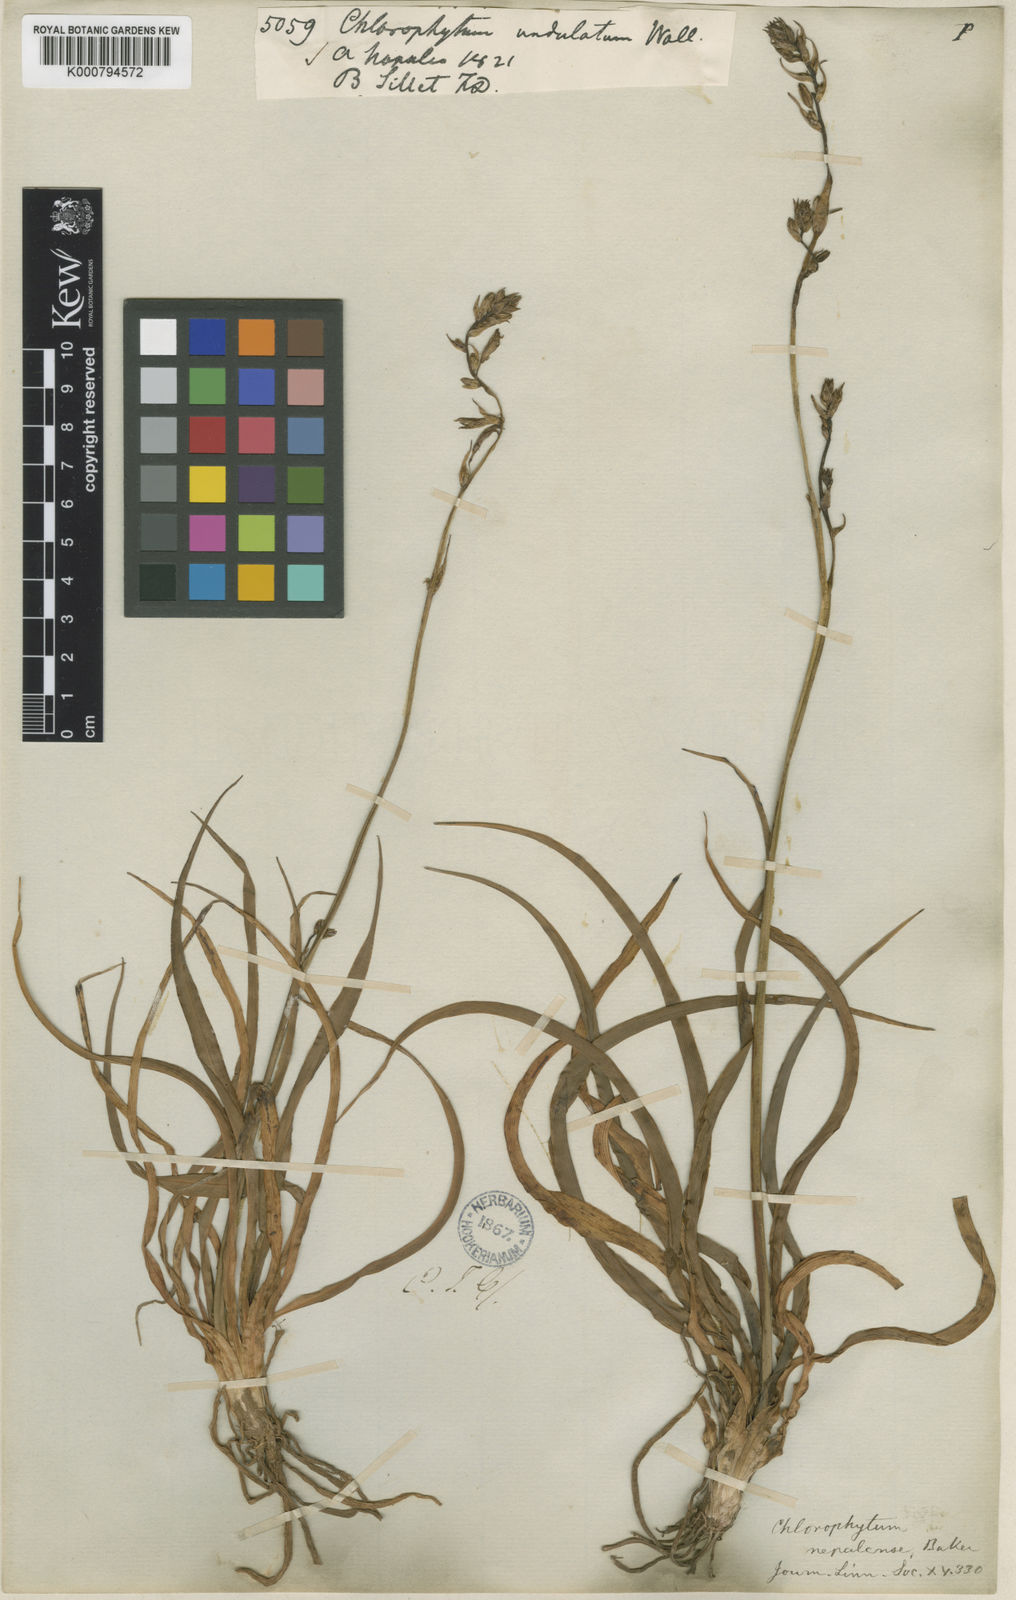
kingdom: Plantae
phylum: Tracheophyta
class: Liliopsida
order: Asparagales
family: Asparagaceae
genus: Chlorophytum
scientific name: Chlorophytum nepalense
